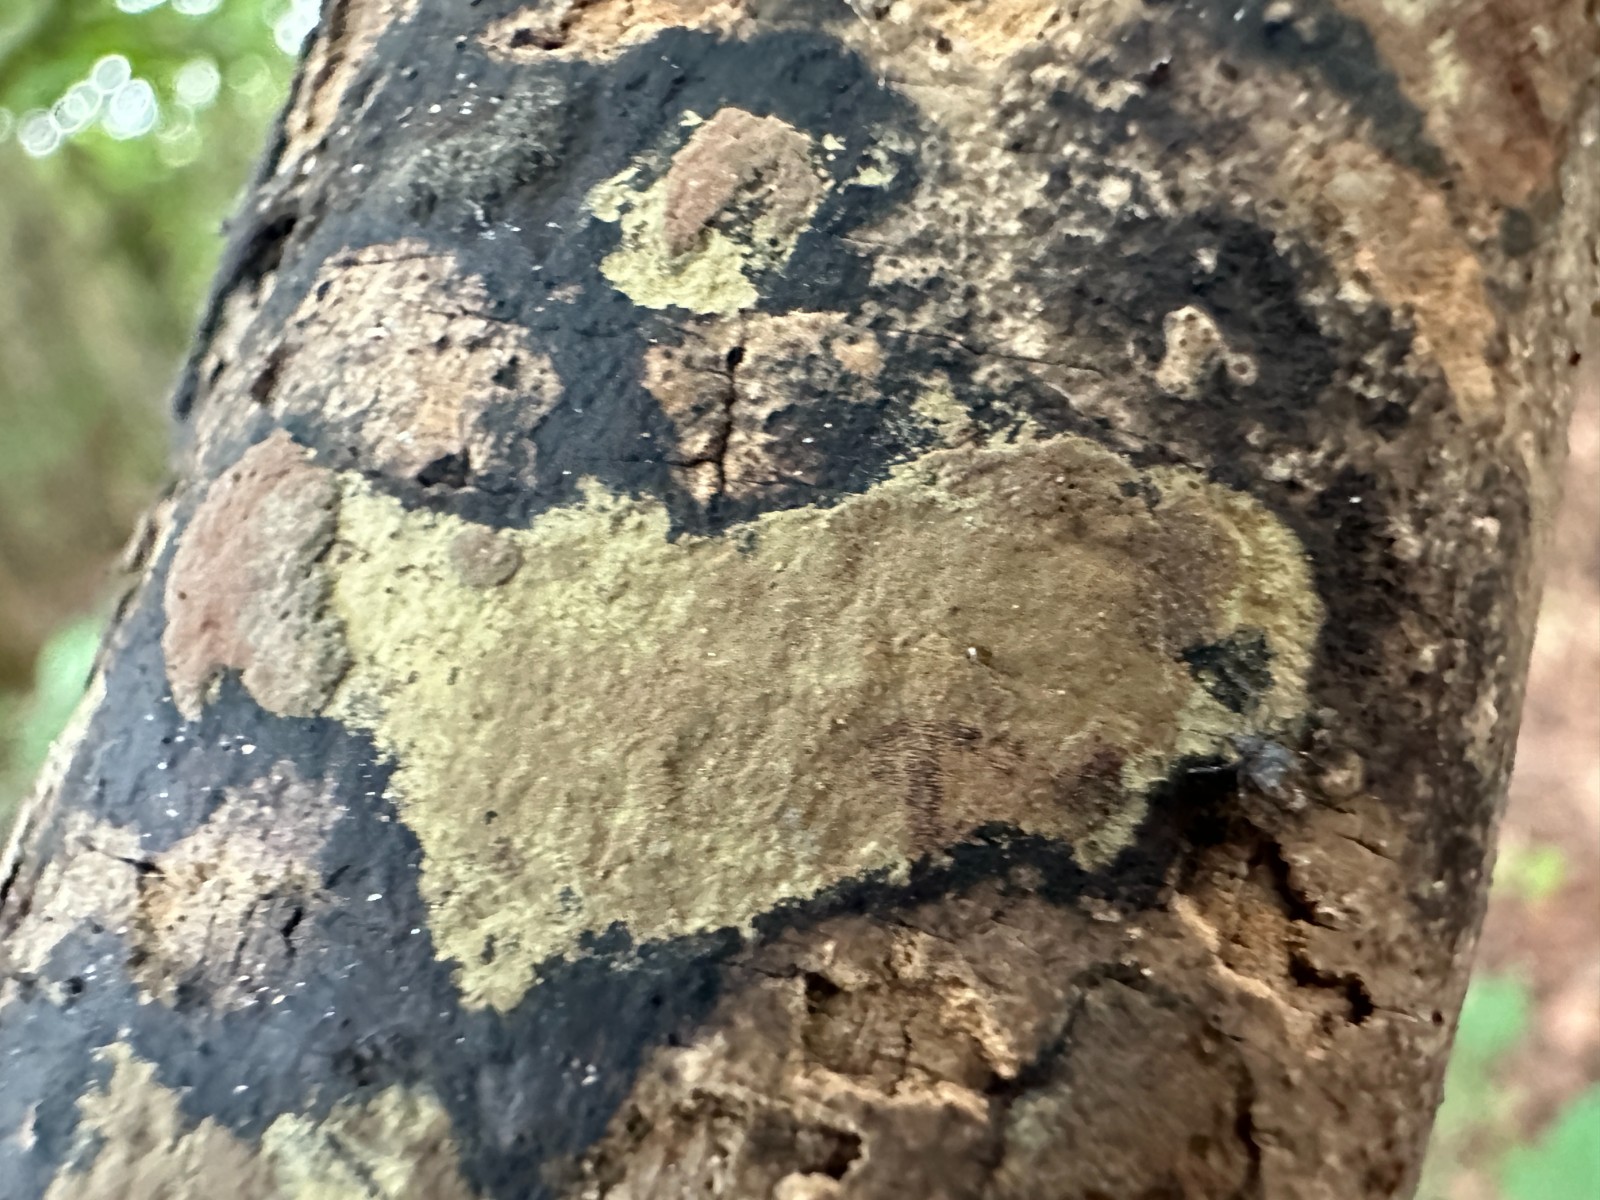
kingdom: Fungi
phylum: Ascomycota
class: Sordariomycetes
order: Xylariales
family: Hypoxylaceae
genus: Hypoxylon
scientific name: Hypoxylon petriniae
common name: nedsænket kulbær
